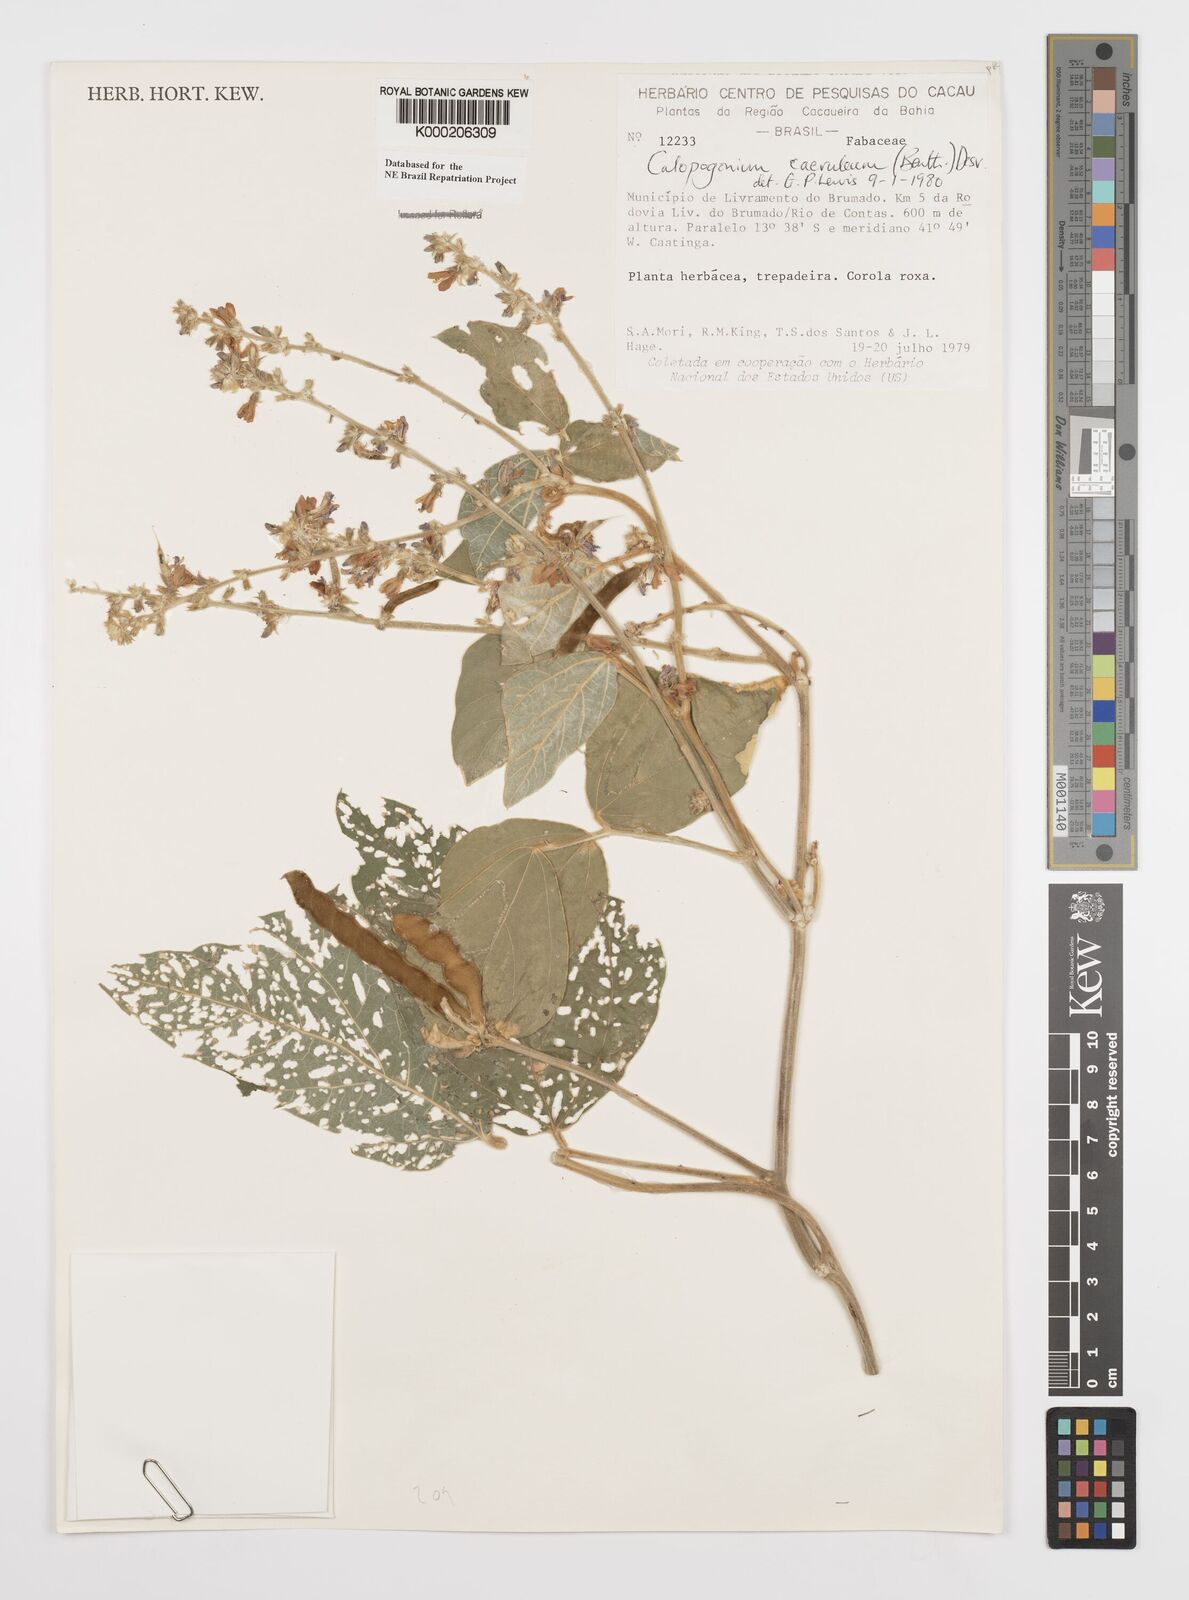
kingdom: Plantae
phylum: Tracheophyta
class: Magnoliopsida
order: Fabales
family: Fabaceae
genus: Calopogonium
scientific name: Calopogonium
